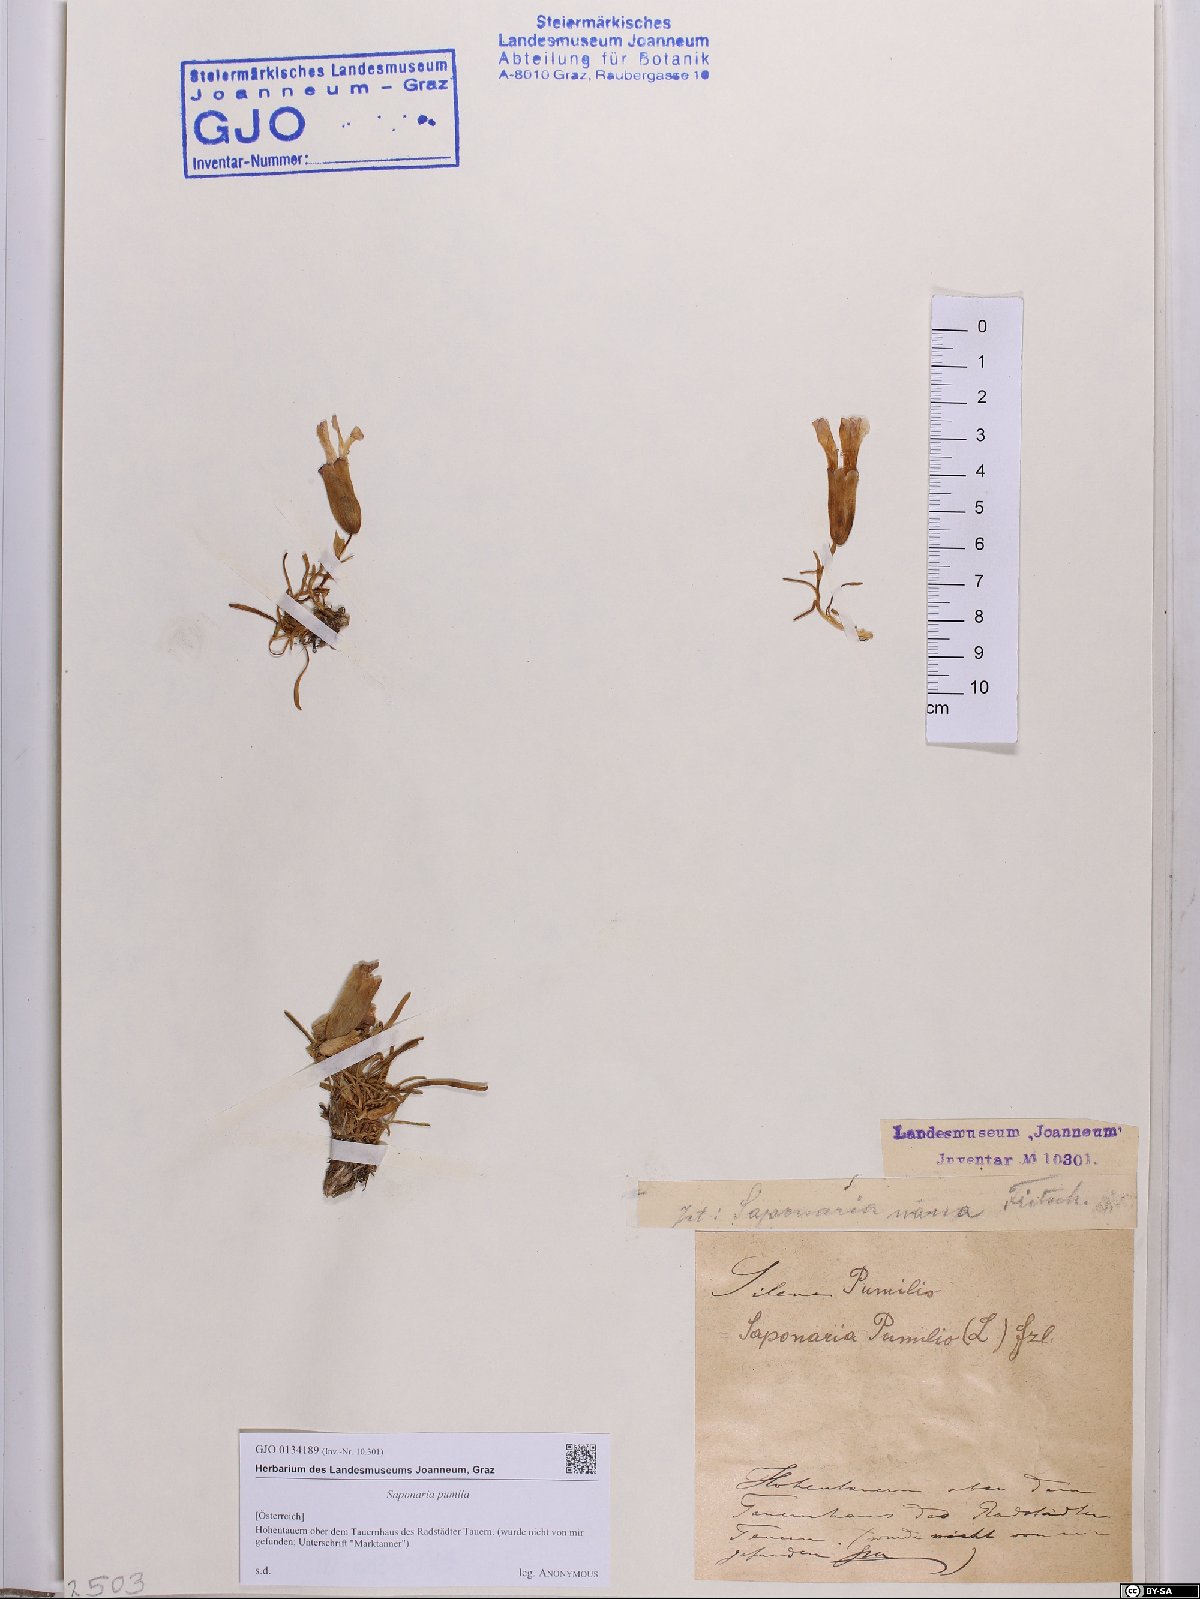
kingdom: Plantae
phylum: Tracheophyta
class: Magnoliopsida
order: Caryophyllales
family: Caryophyllaceae
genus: Saponaria
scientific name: Saponaria pumila
